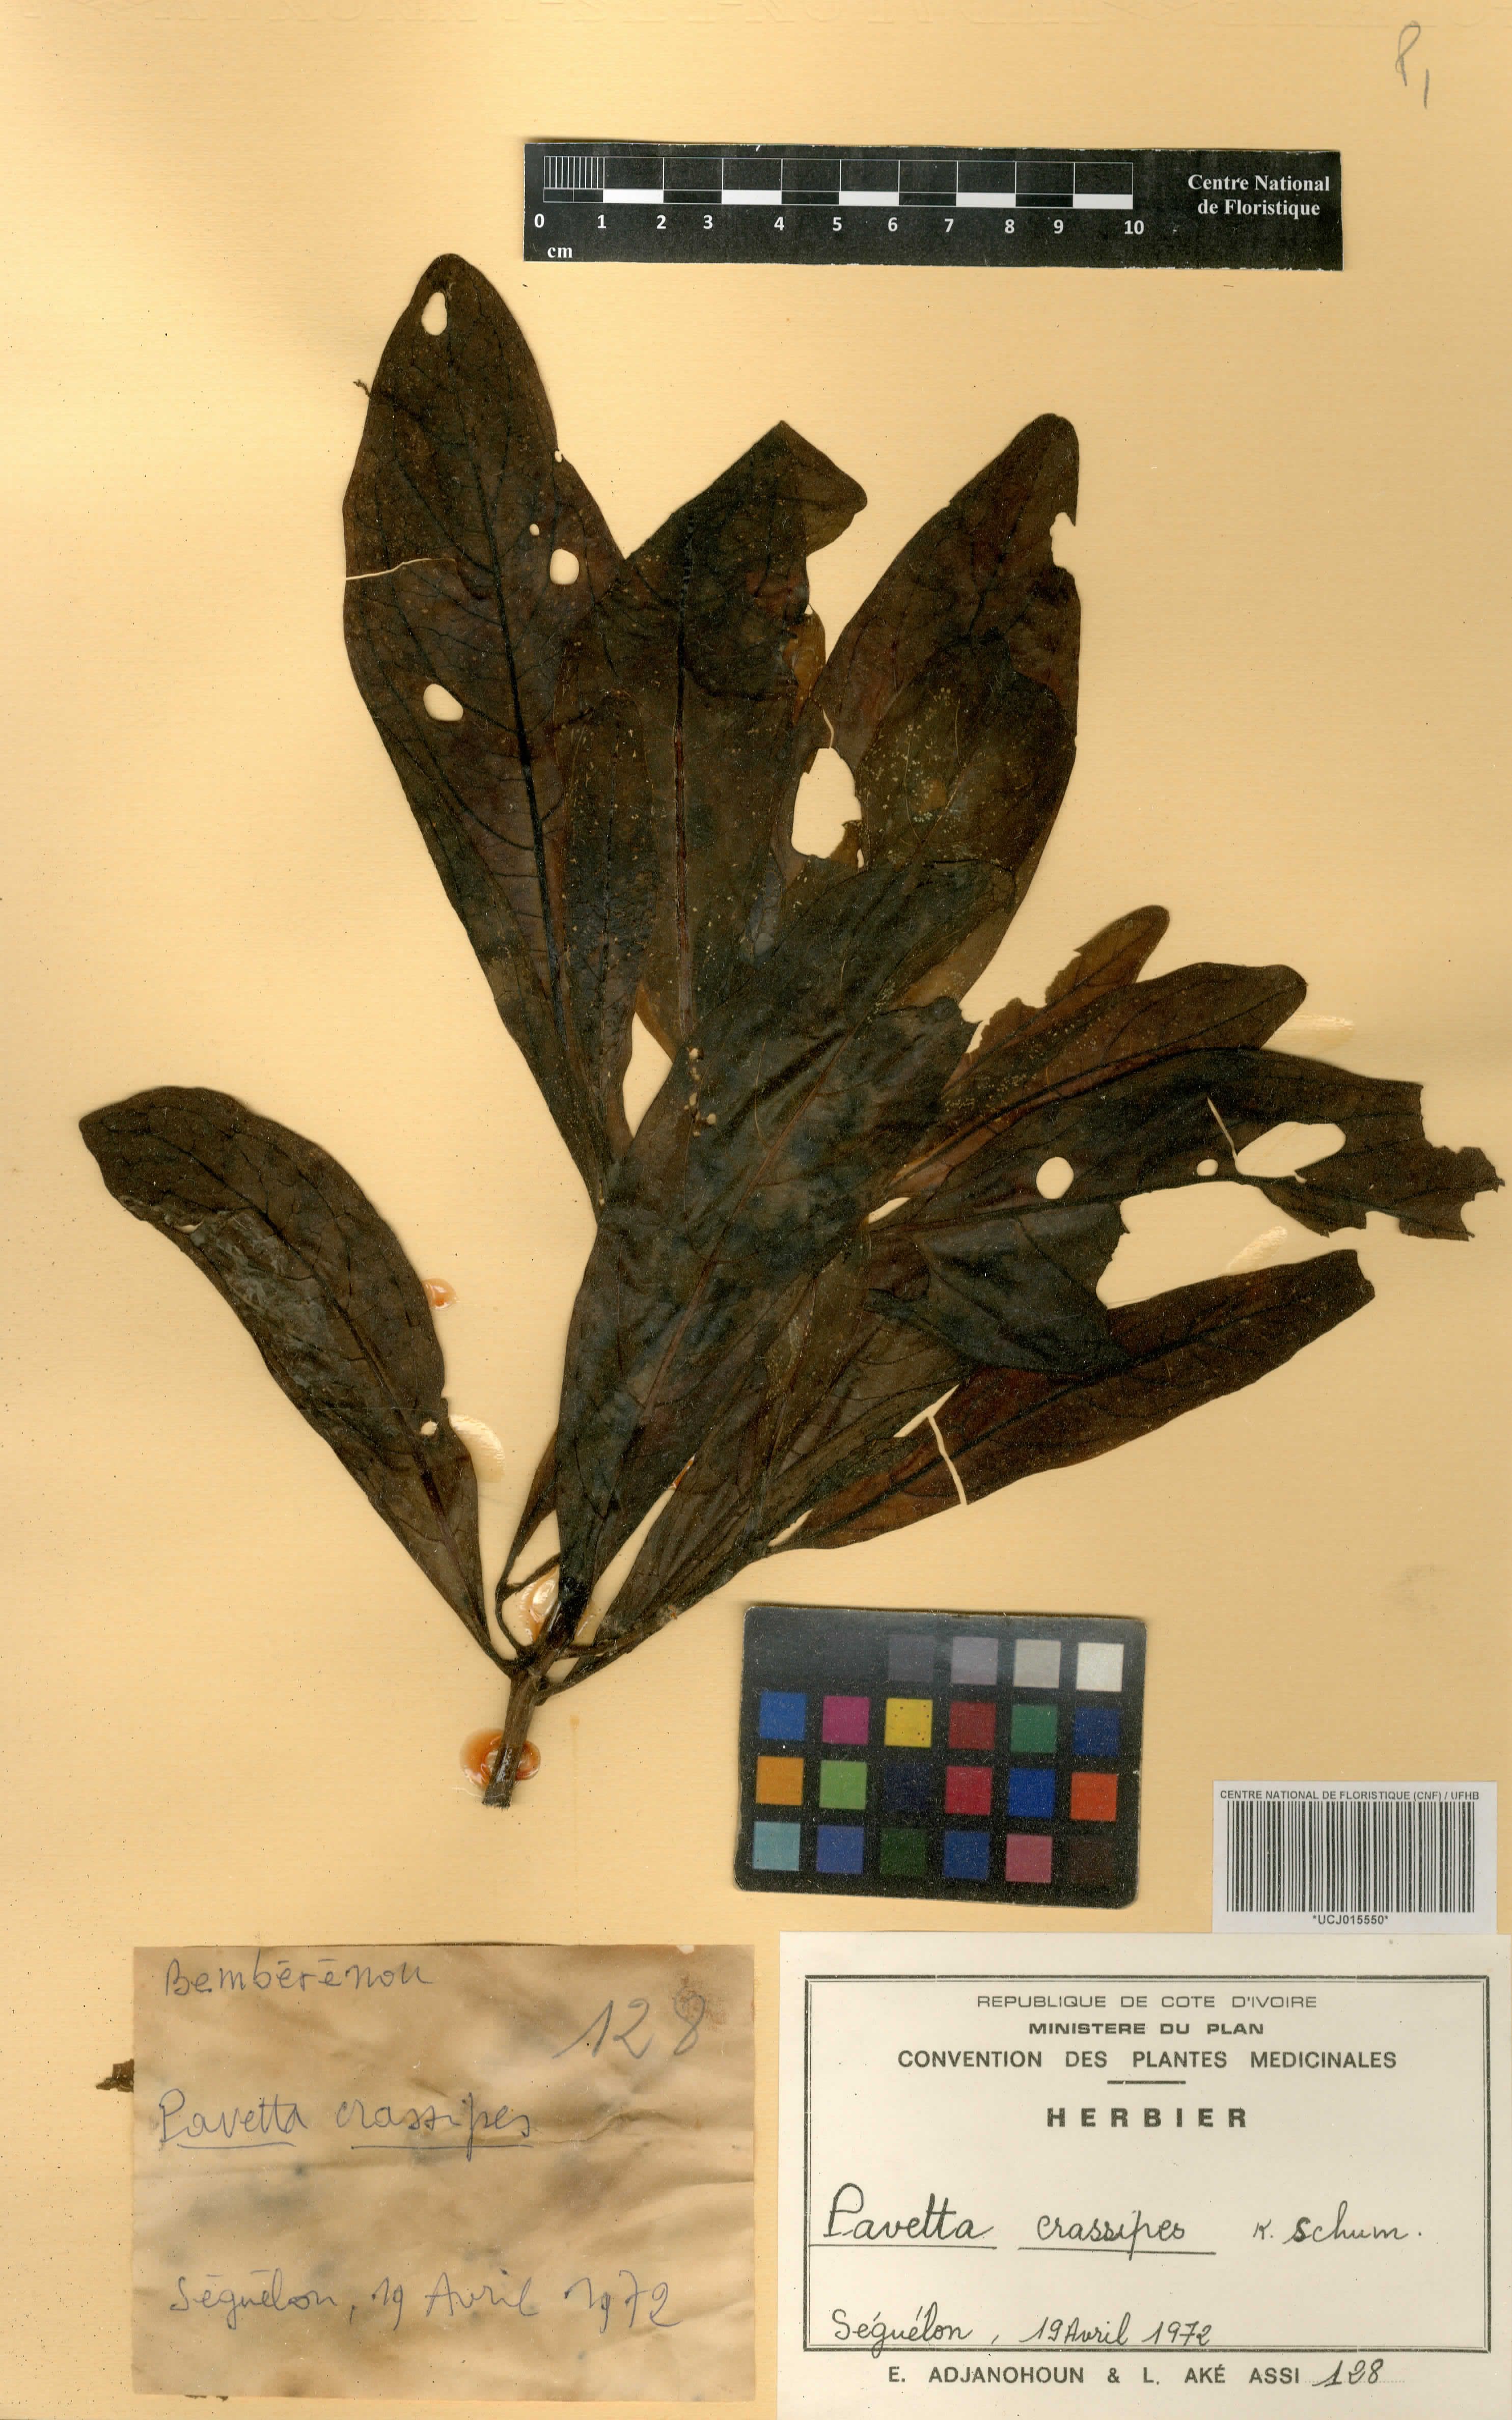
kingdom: Plantae
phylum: Tracheophyta
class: Magnoliopsida
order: Gentianales
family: Rubiaceae
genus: Pavetta
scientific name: Pavetta crassipes
